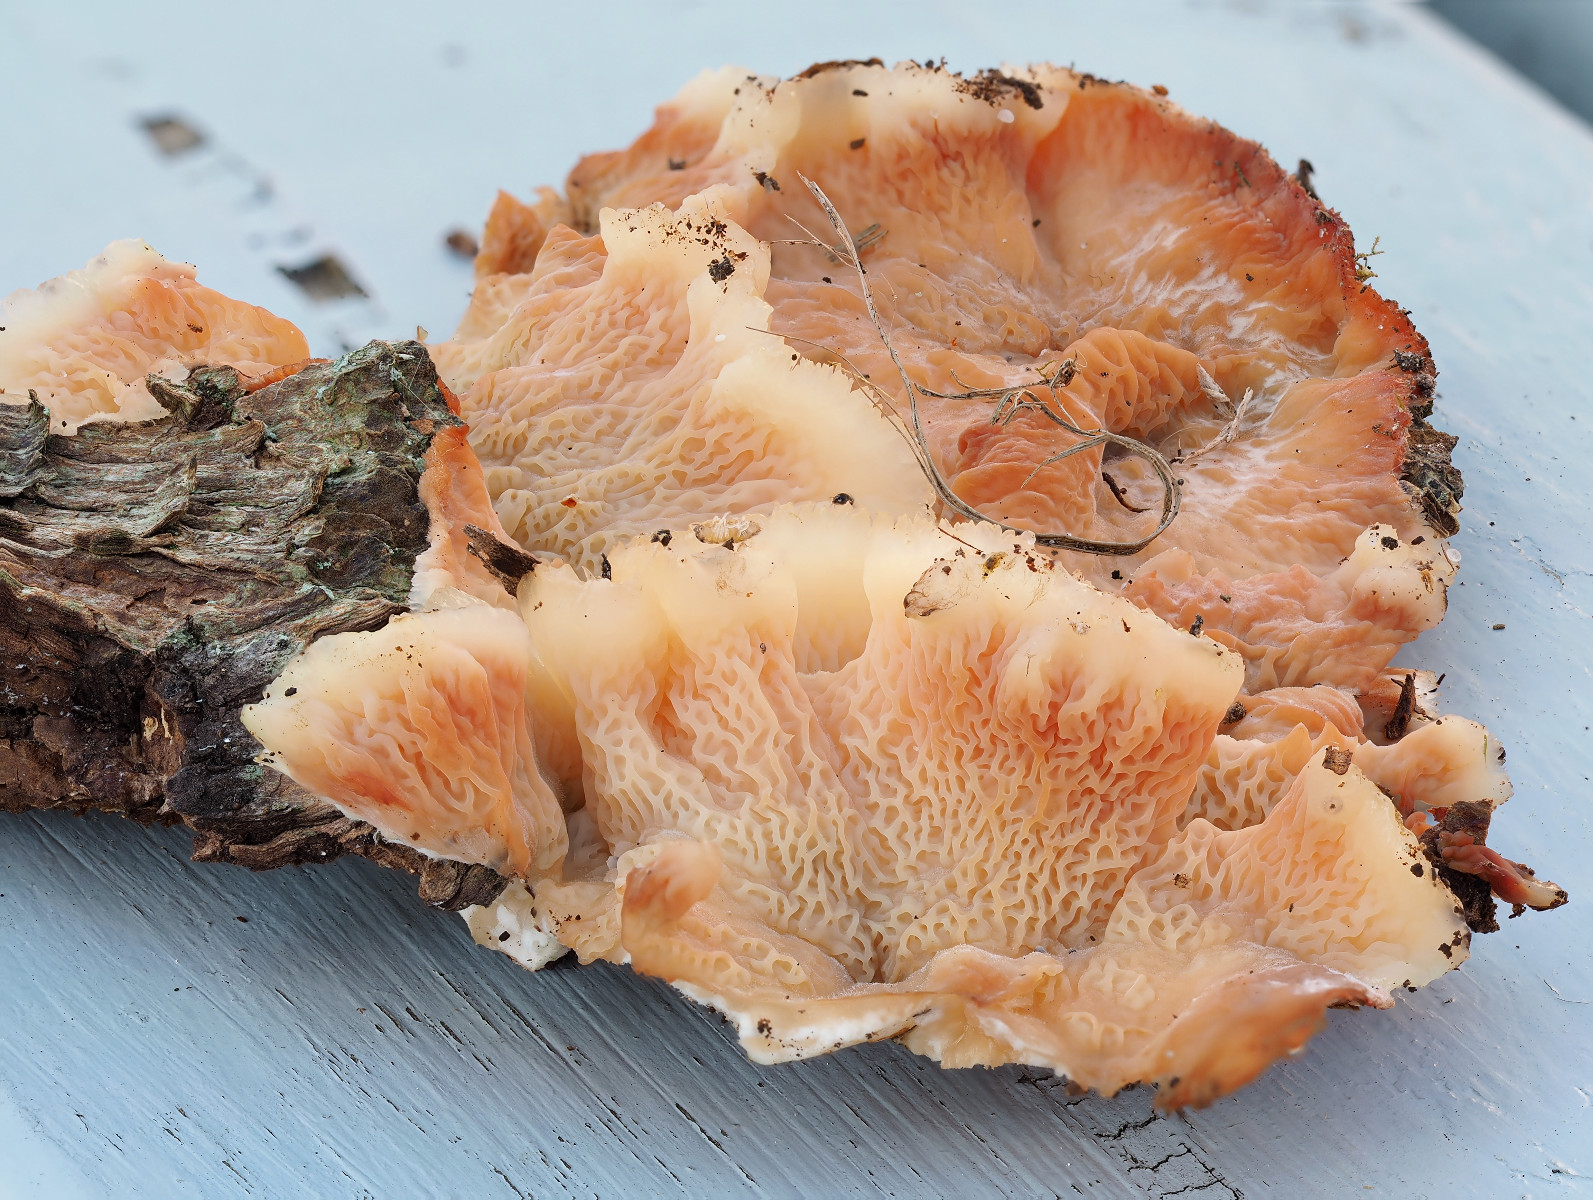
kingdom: Fungi
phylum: Basidiomycota
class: Agaricomycetes
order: Polyporales
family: Meruliaceae
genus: Phlebia
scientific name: Phlebia tremellosa
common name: bævrende åresvamp
